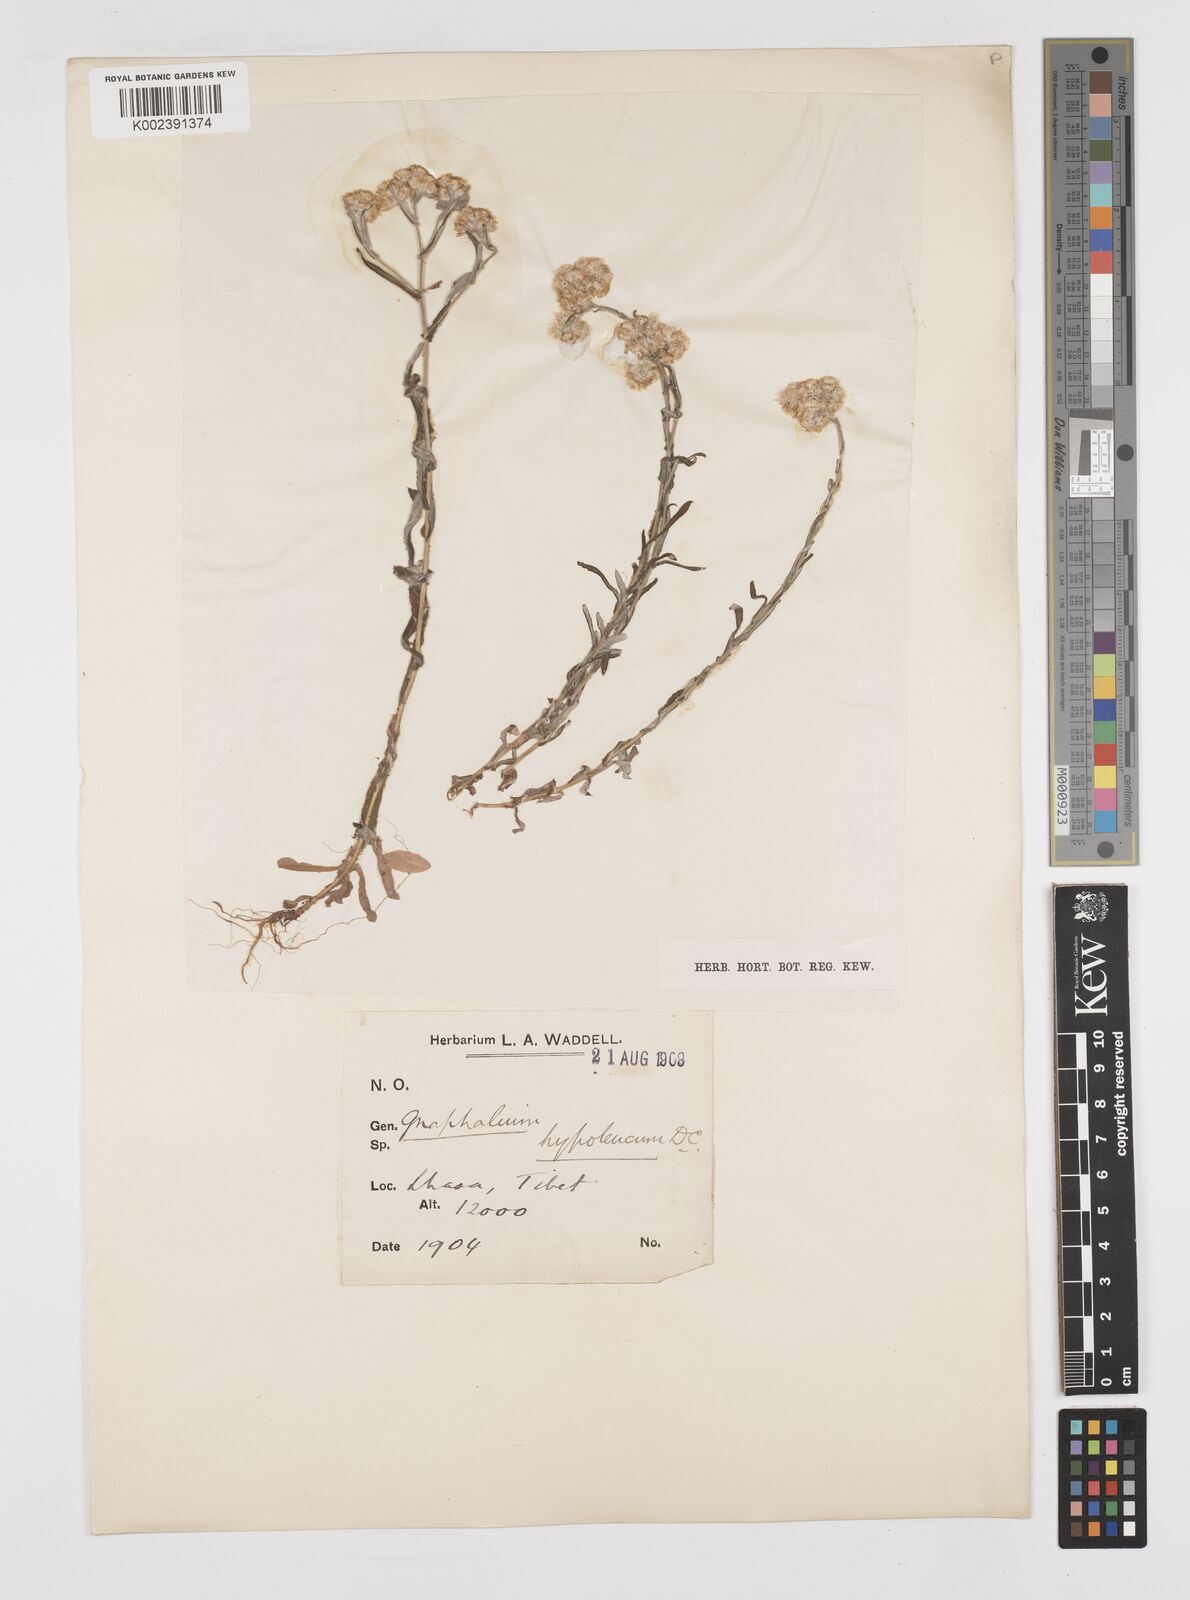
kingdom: Plantae
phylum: Tracheophyta
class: Magnoliopsida
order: Asterales
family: Asteraceae
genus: Pseudognaphalium
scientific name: Pseudognaphalium hypoleucum
